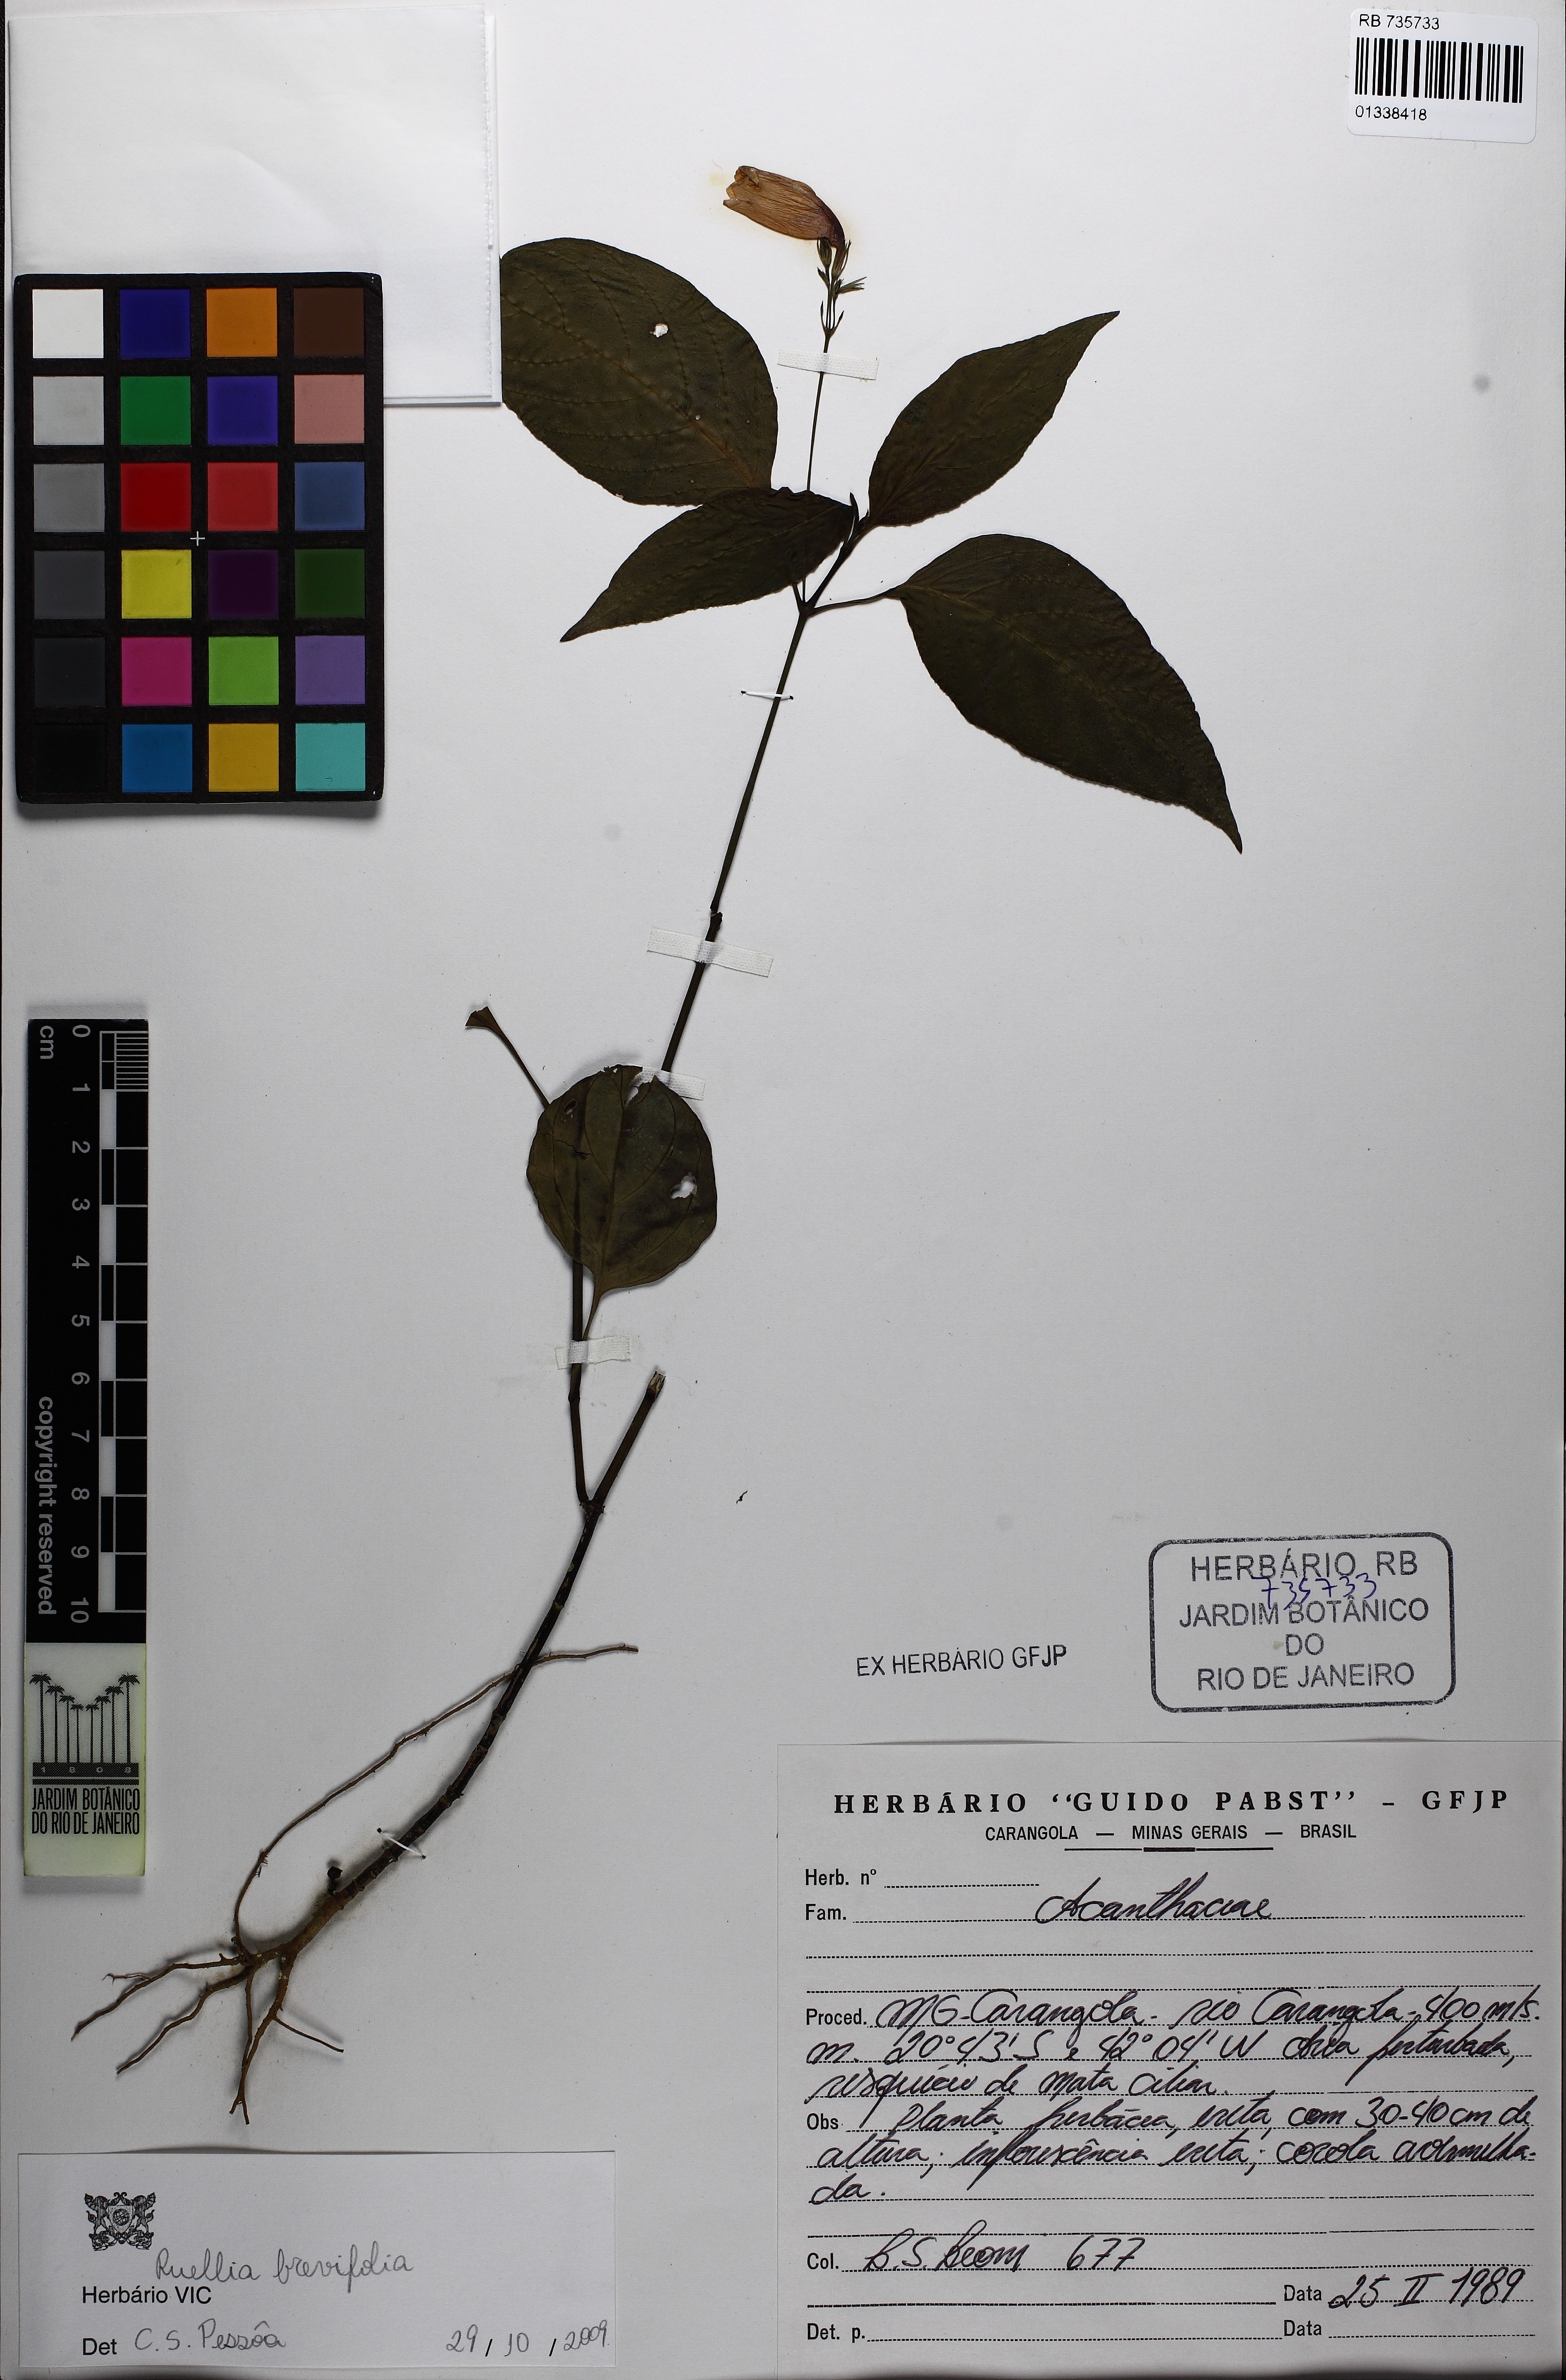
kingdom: Plantae
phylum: Tracheophyta
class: Magnoliopsida
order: Lamiales
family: Acanthaceae
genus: Ruellia
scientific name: Ruellia brevifolia
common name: Tropical wild petunia
